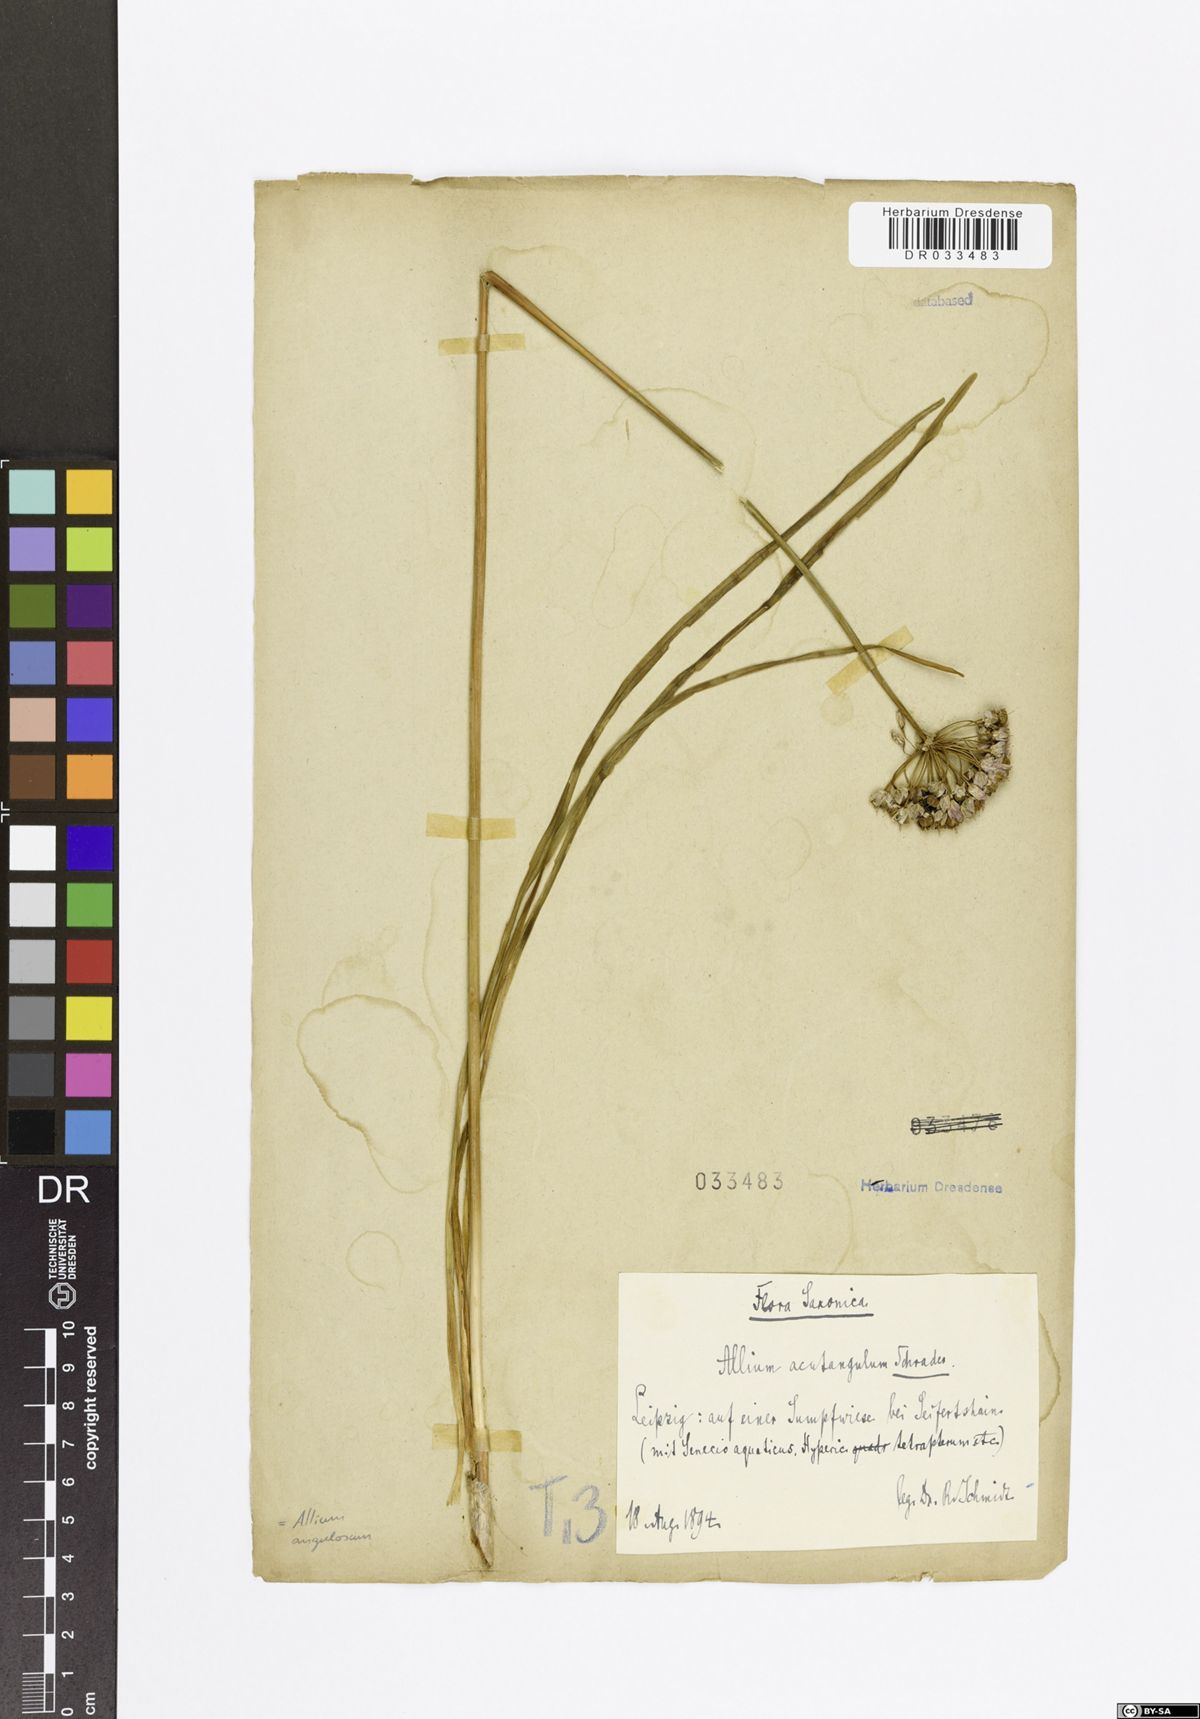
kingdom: Plantae
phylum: Tracheophyta
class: Liliopsida
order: Asparagales
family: Amaryllidaceae
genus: Allium
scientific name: Allium angulosum
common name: Mouse garlic
